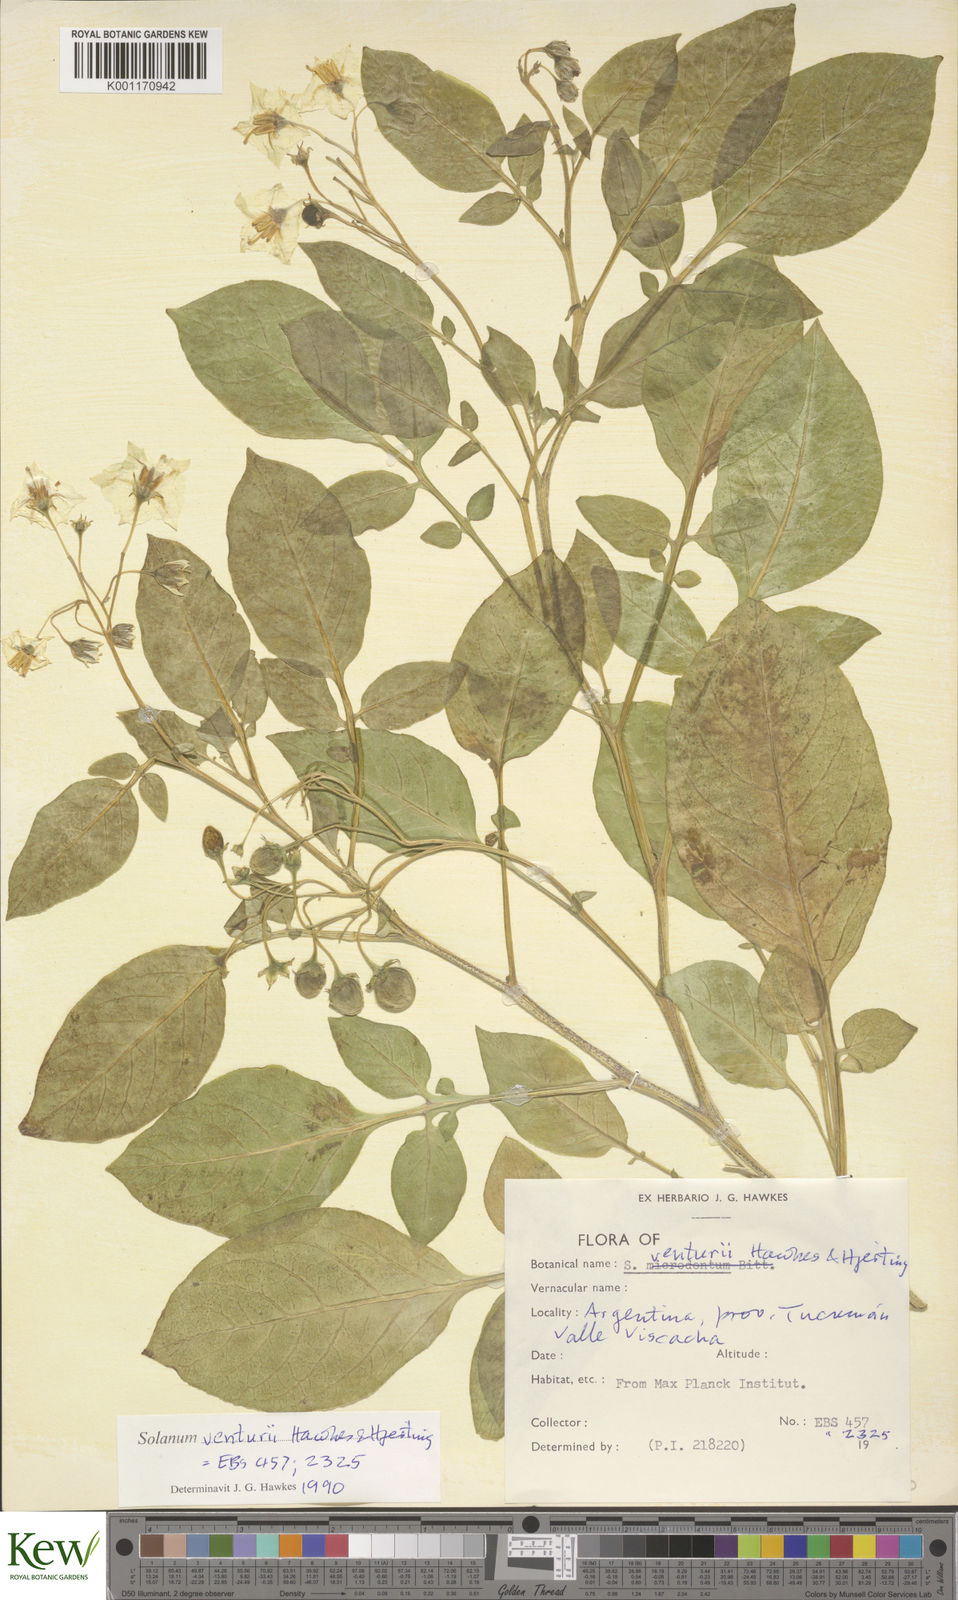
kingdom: Plantae
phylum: Tracheophyta
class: Magnoliopsida
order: Solanales
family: Solanaceae
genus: Solanum
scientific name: Solanum venturii
